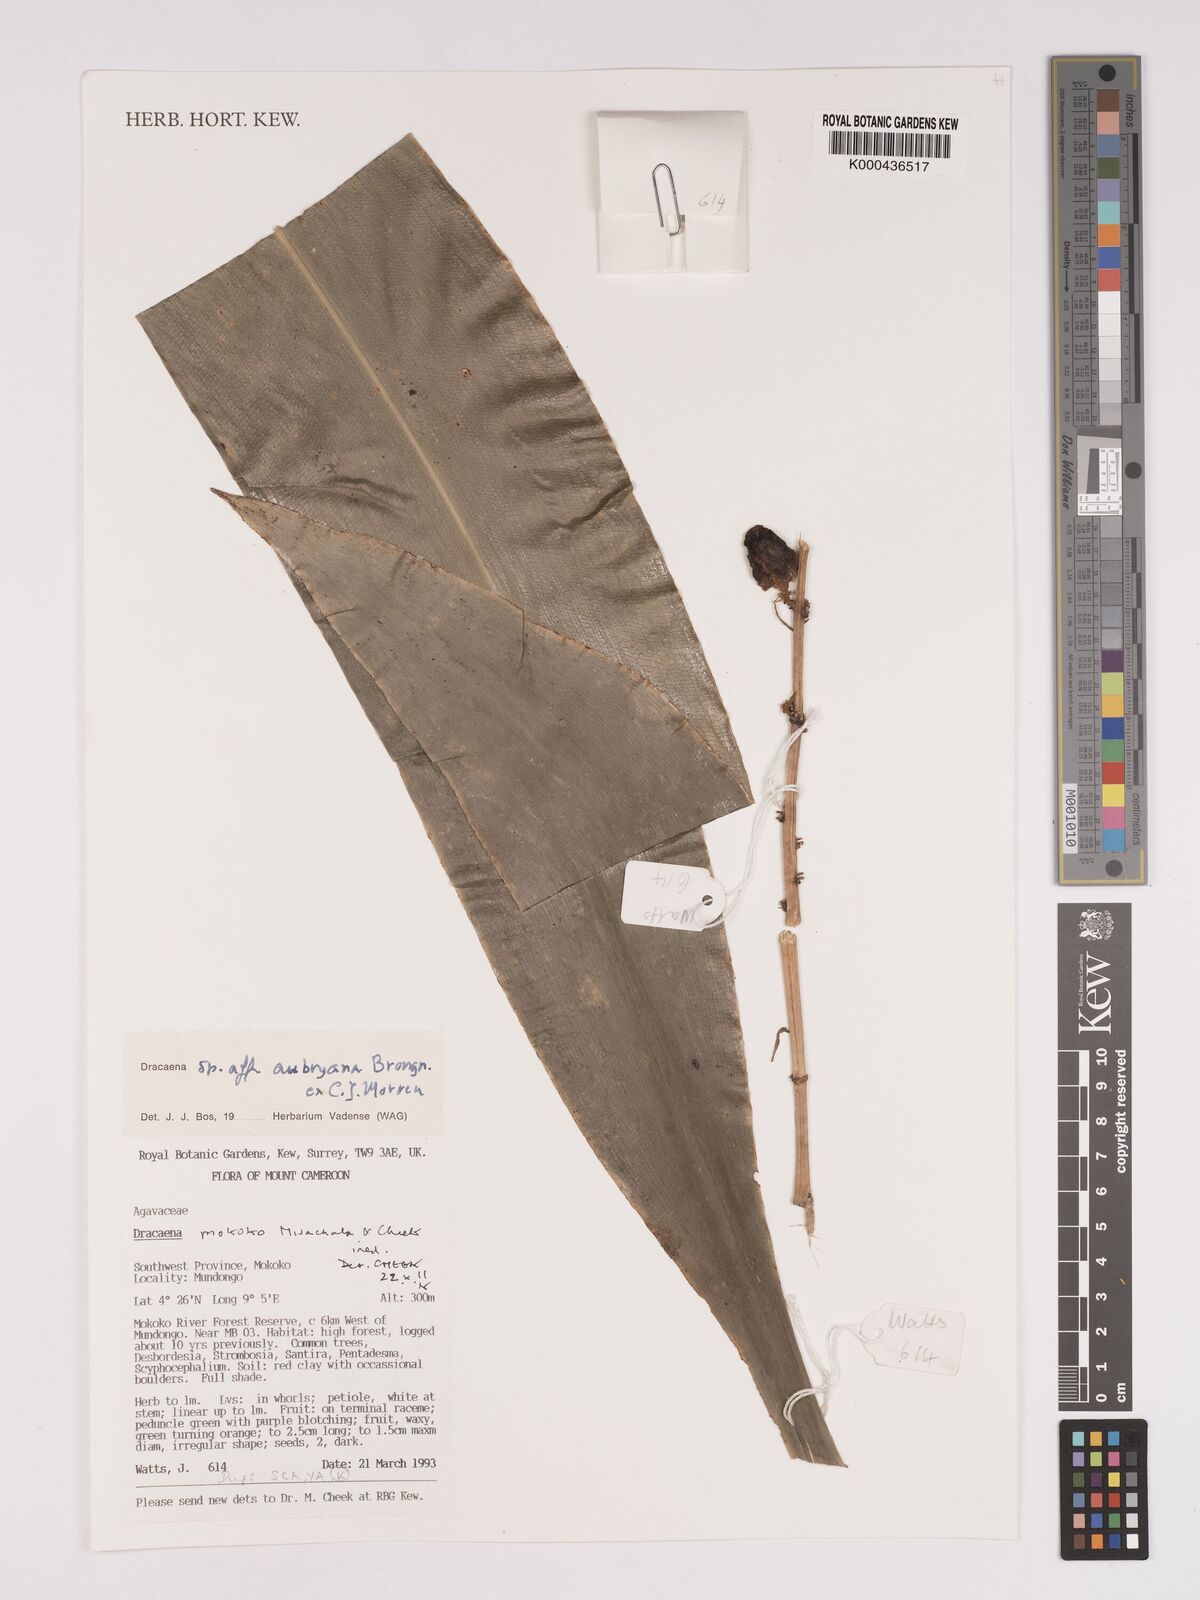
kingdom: Plantae
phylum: Tracheophyta
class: Liliopsida
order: Asparagales
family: Asparagaceae
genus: Dracaena
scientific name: Dracaena mokoko
